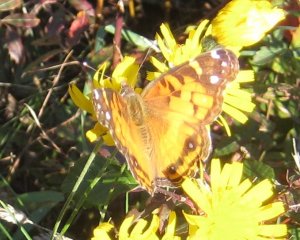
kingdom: Animalia
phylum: Arthropoda
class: Insecta
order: Lepidoptera
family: Nymphalidae
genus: Vanessa
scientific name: Vanessa cardui
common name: Painted Lady
